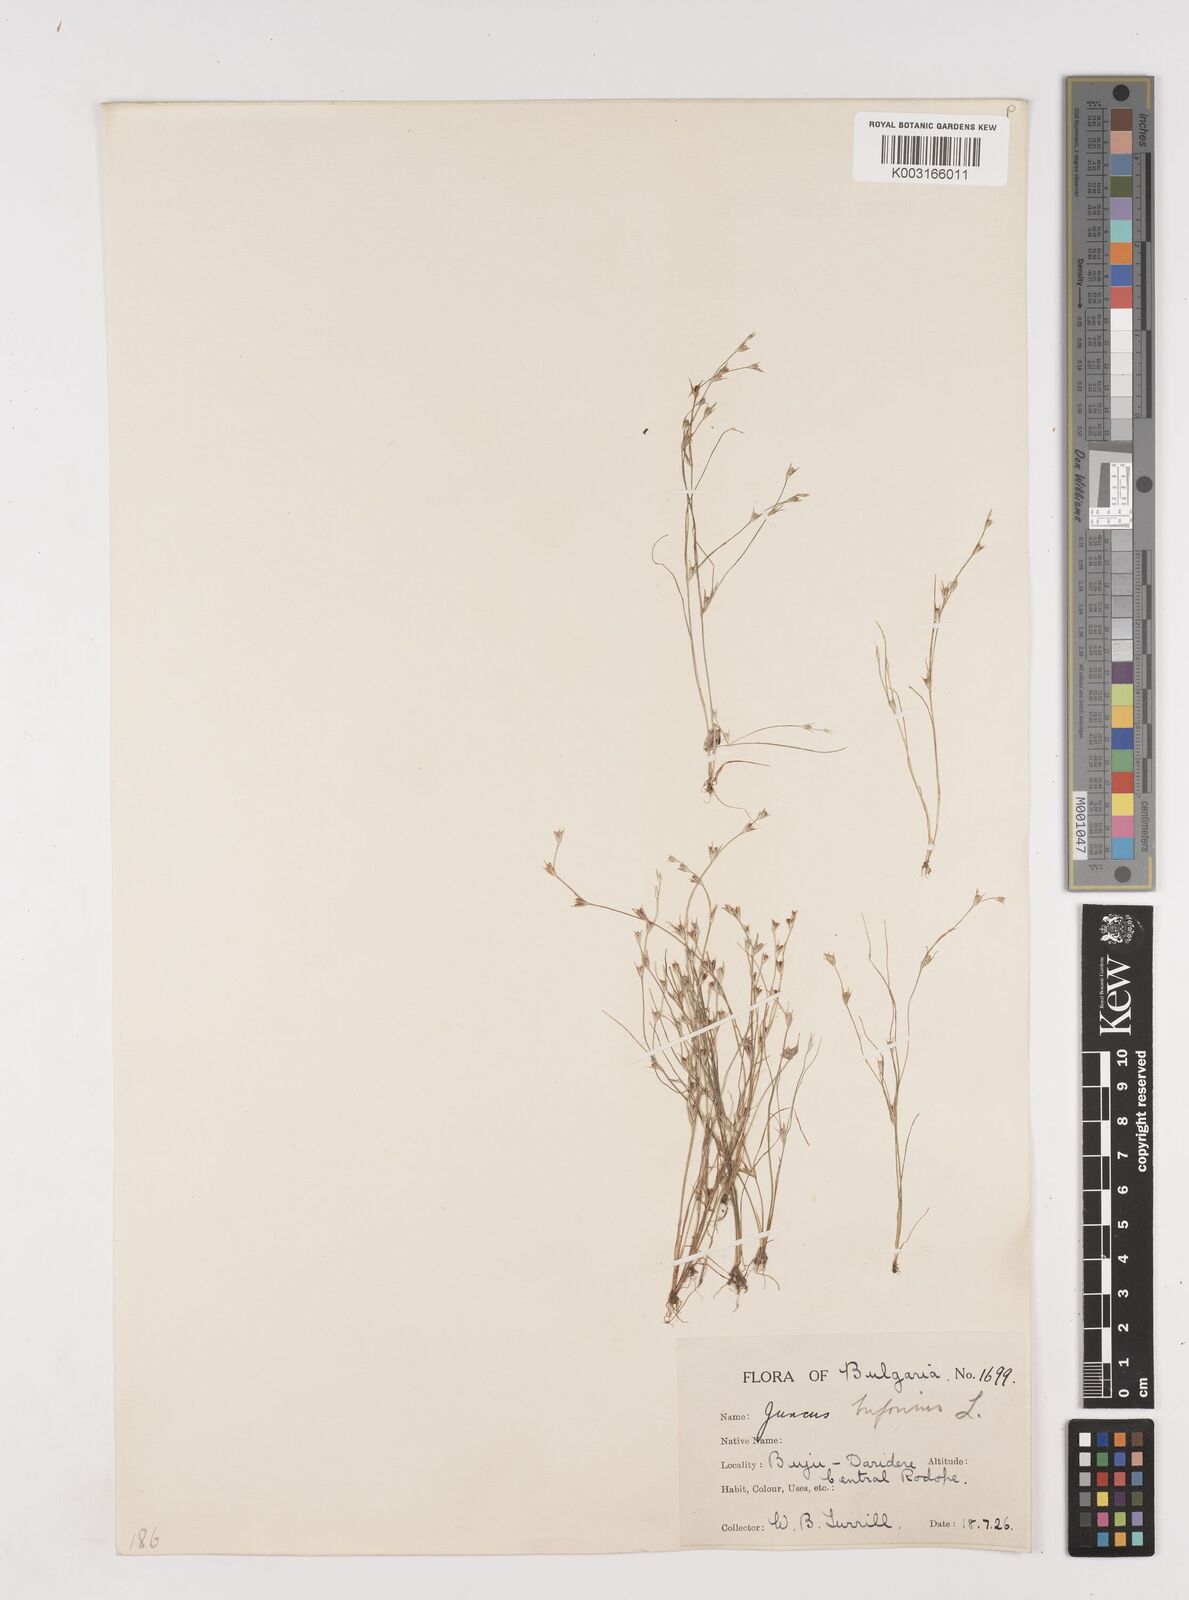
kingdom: Plantae
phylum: Tracheophyta
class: Liliopsida
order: Poales
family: Juncaceae
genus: Juncus
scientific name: Juncus bufonius
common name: Toad rush
